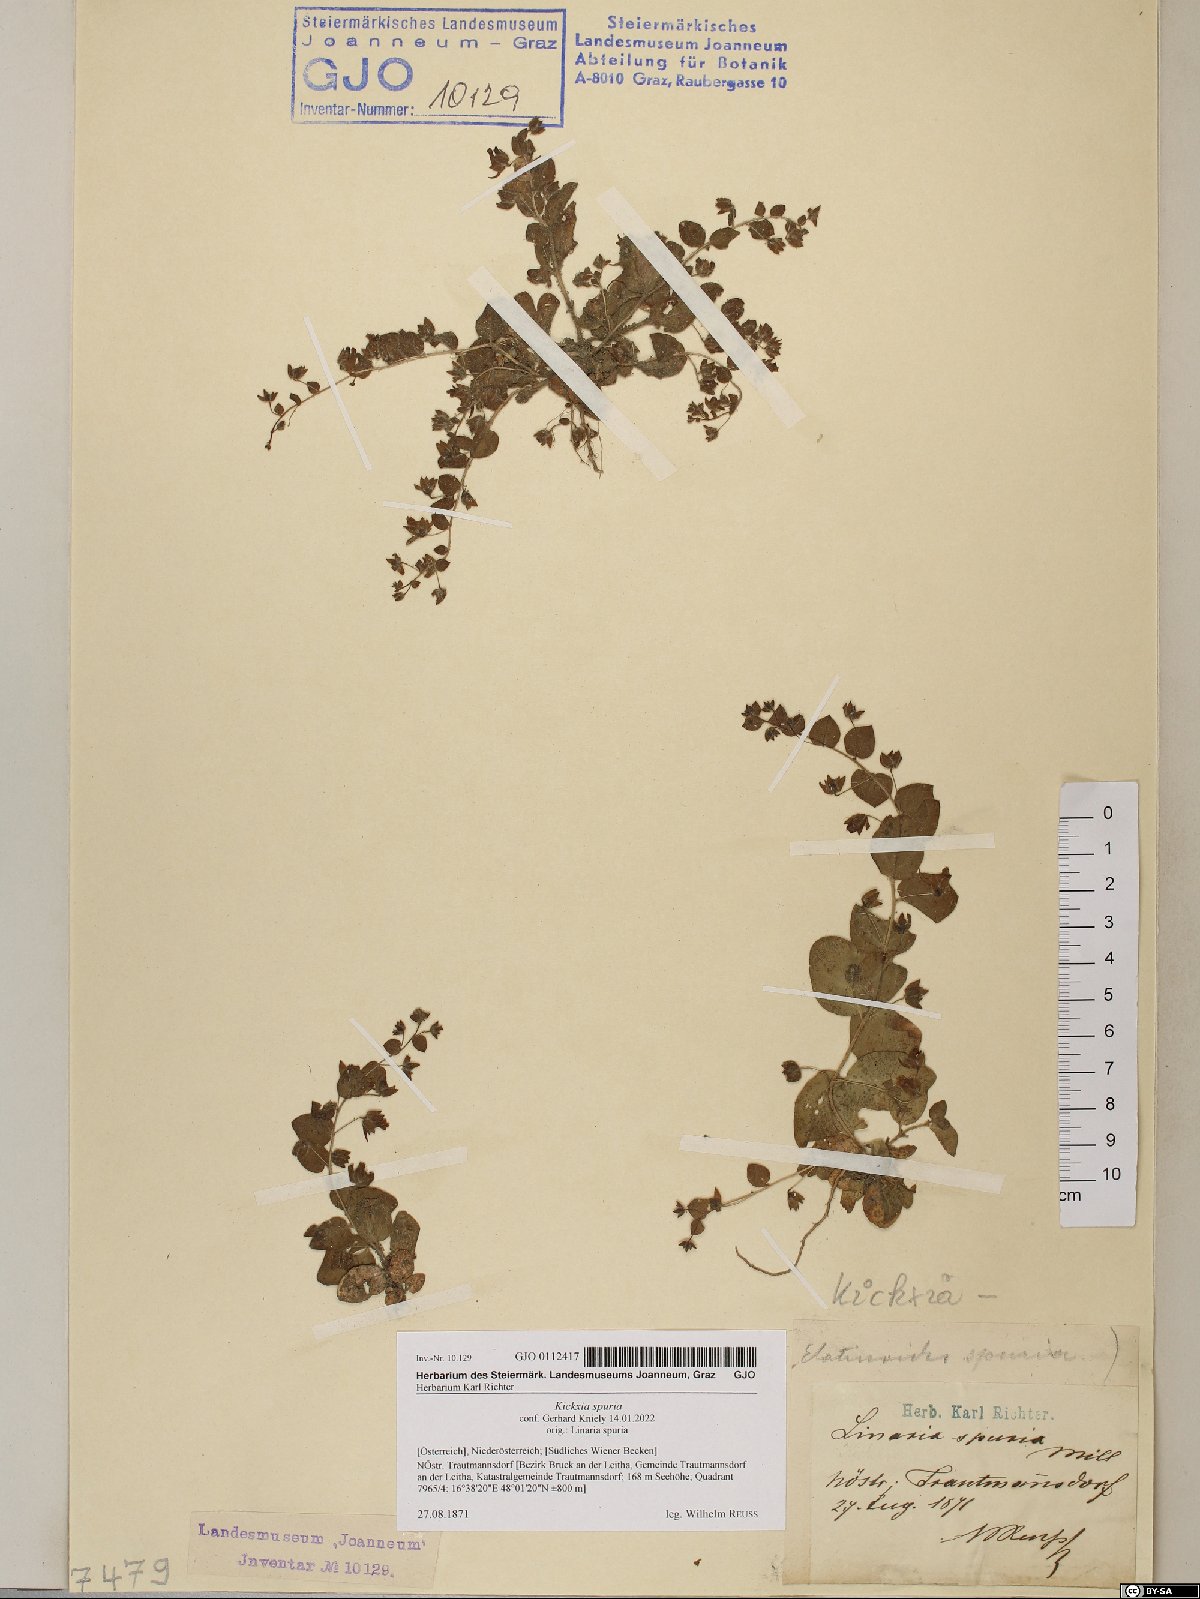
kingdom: Plantae
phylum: Tracheophyta
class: Magnoliopsida
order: Lamiales
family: Plantaginaceae
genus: Kickxia
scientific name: Kickxia spuria
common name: Round-leaved fluellen
